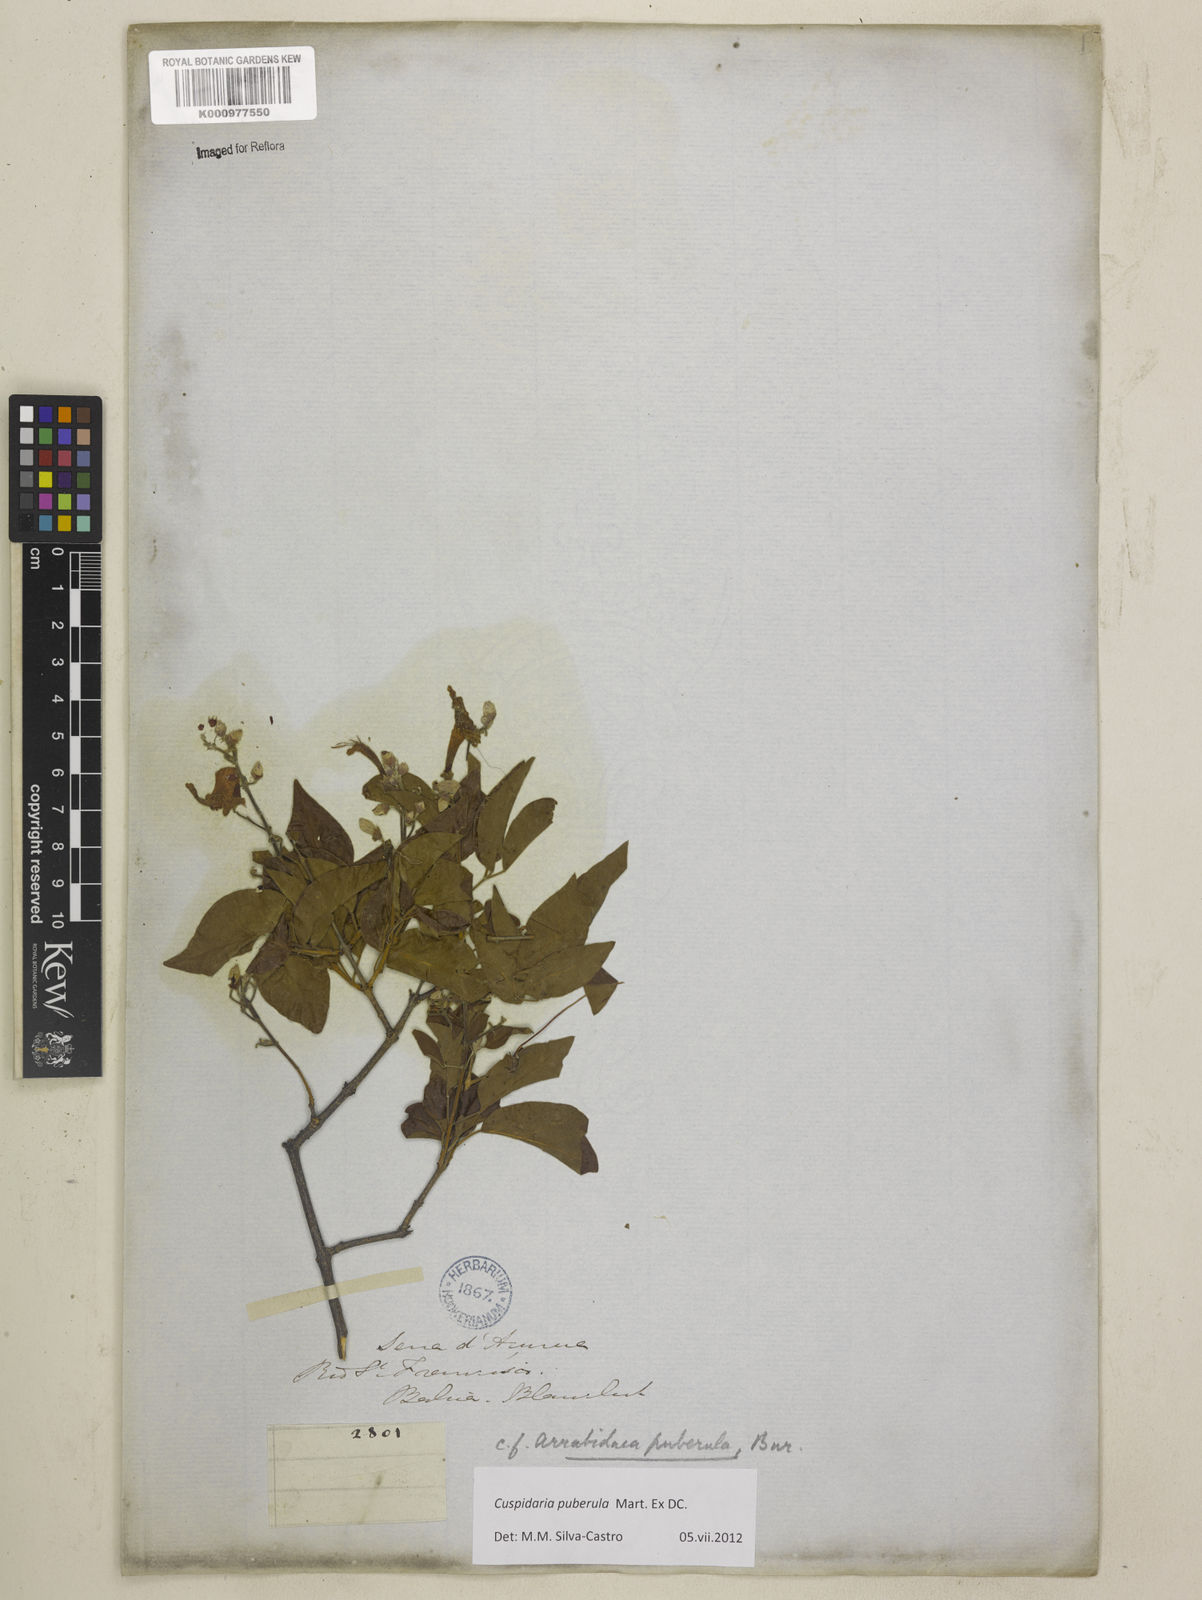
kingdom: Plantae
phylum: Tracheophyta
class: Magnoliopsida
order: Lamiales
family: Bignoniaceae
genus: Cuspidaria
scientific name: Cuspidaria simplicifolia
